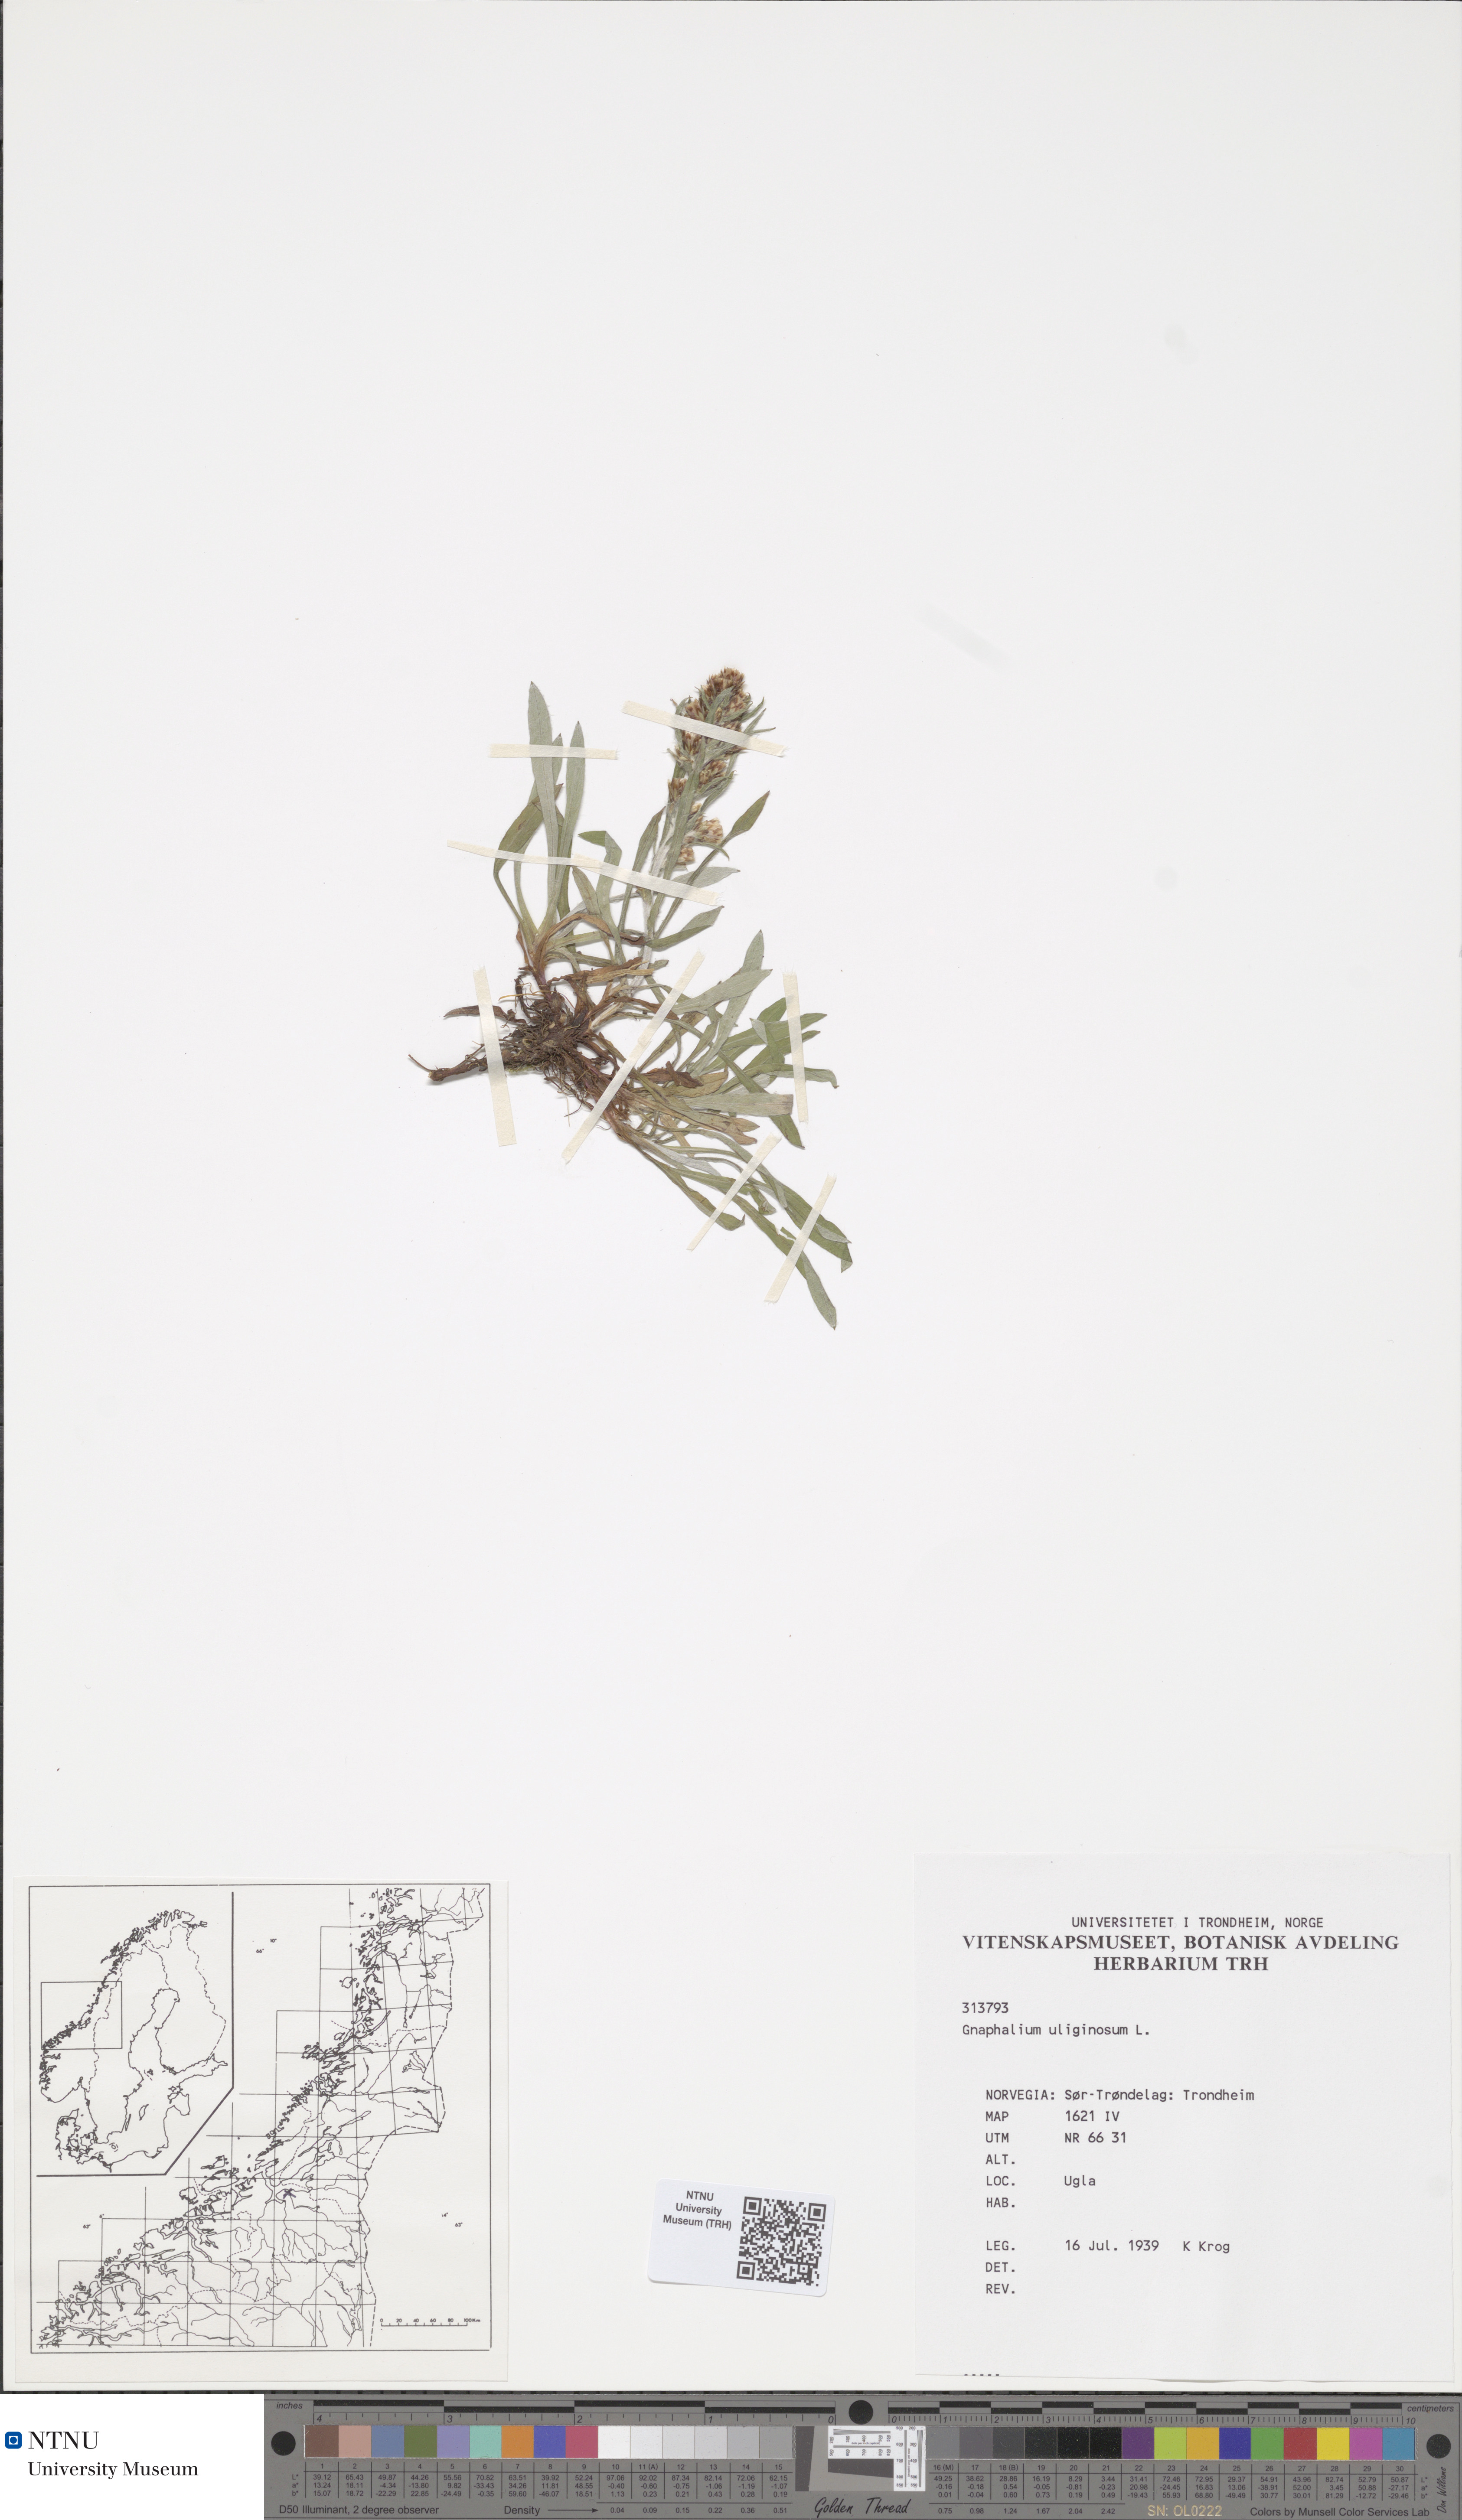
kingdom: Plantae
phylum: Tracheophyta
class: Magnoliopsida
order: Asterales
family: Asteraceae
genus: Gnaphalium
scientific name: Gnaphalium uliginosum
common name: Marsh cudweed
